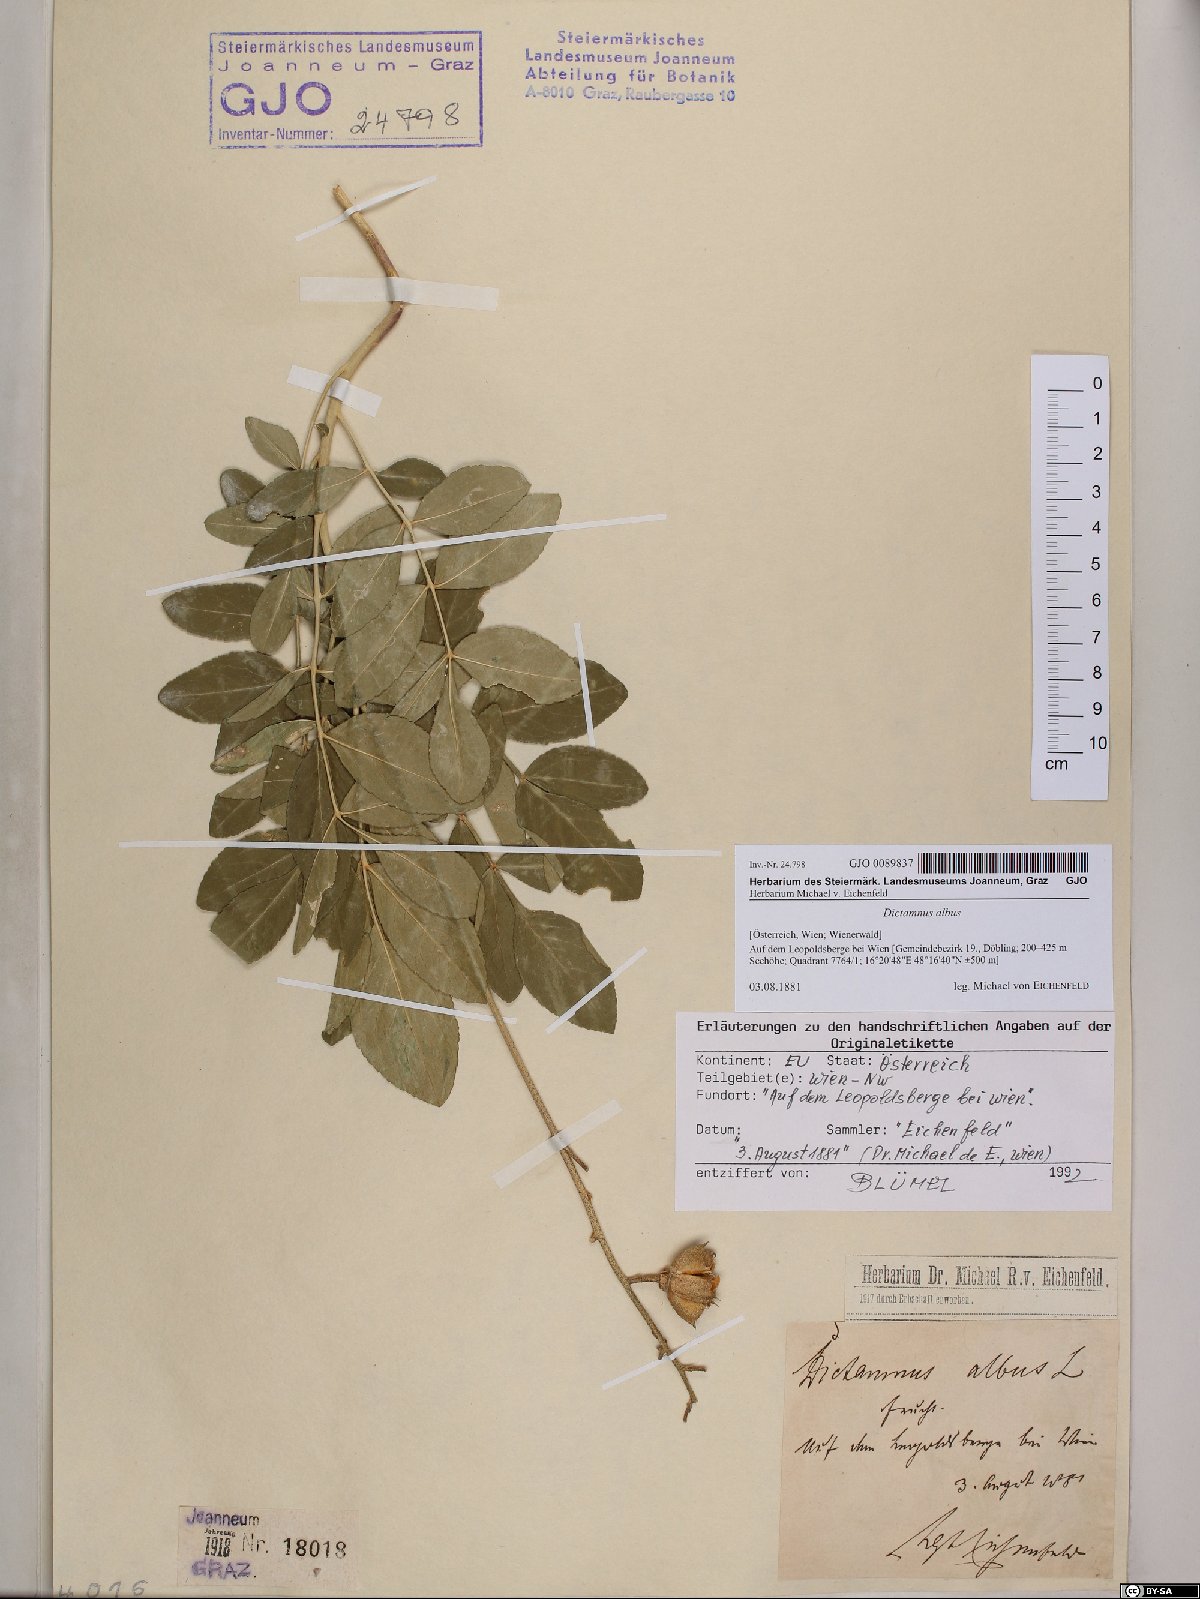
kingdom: Plantae
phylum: Tracheophyta
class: Magnoliopsida
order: Sapindales
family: Rutaceae
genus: Dictamnus
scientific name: Dictamnus albus
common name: Gasplant
